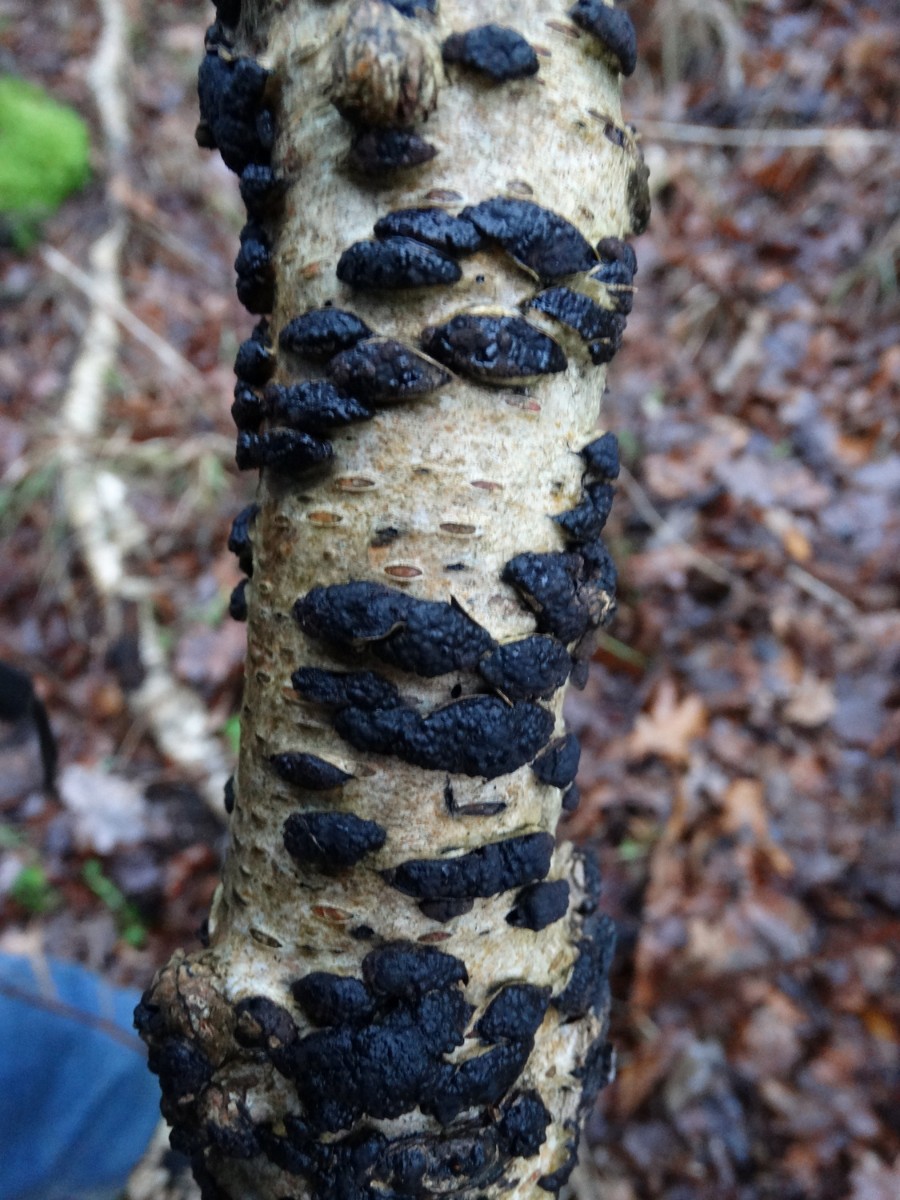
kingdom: Fungi
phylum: Ascomycota
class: Sordariomycetes
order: Xylariales
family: Hypoxylaceae
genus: Jackrogersella
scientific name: Jackrogersella multiformis
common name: foranderlig kulbær
